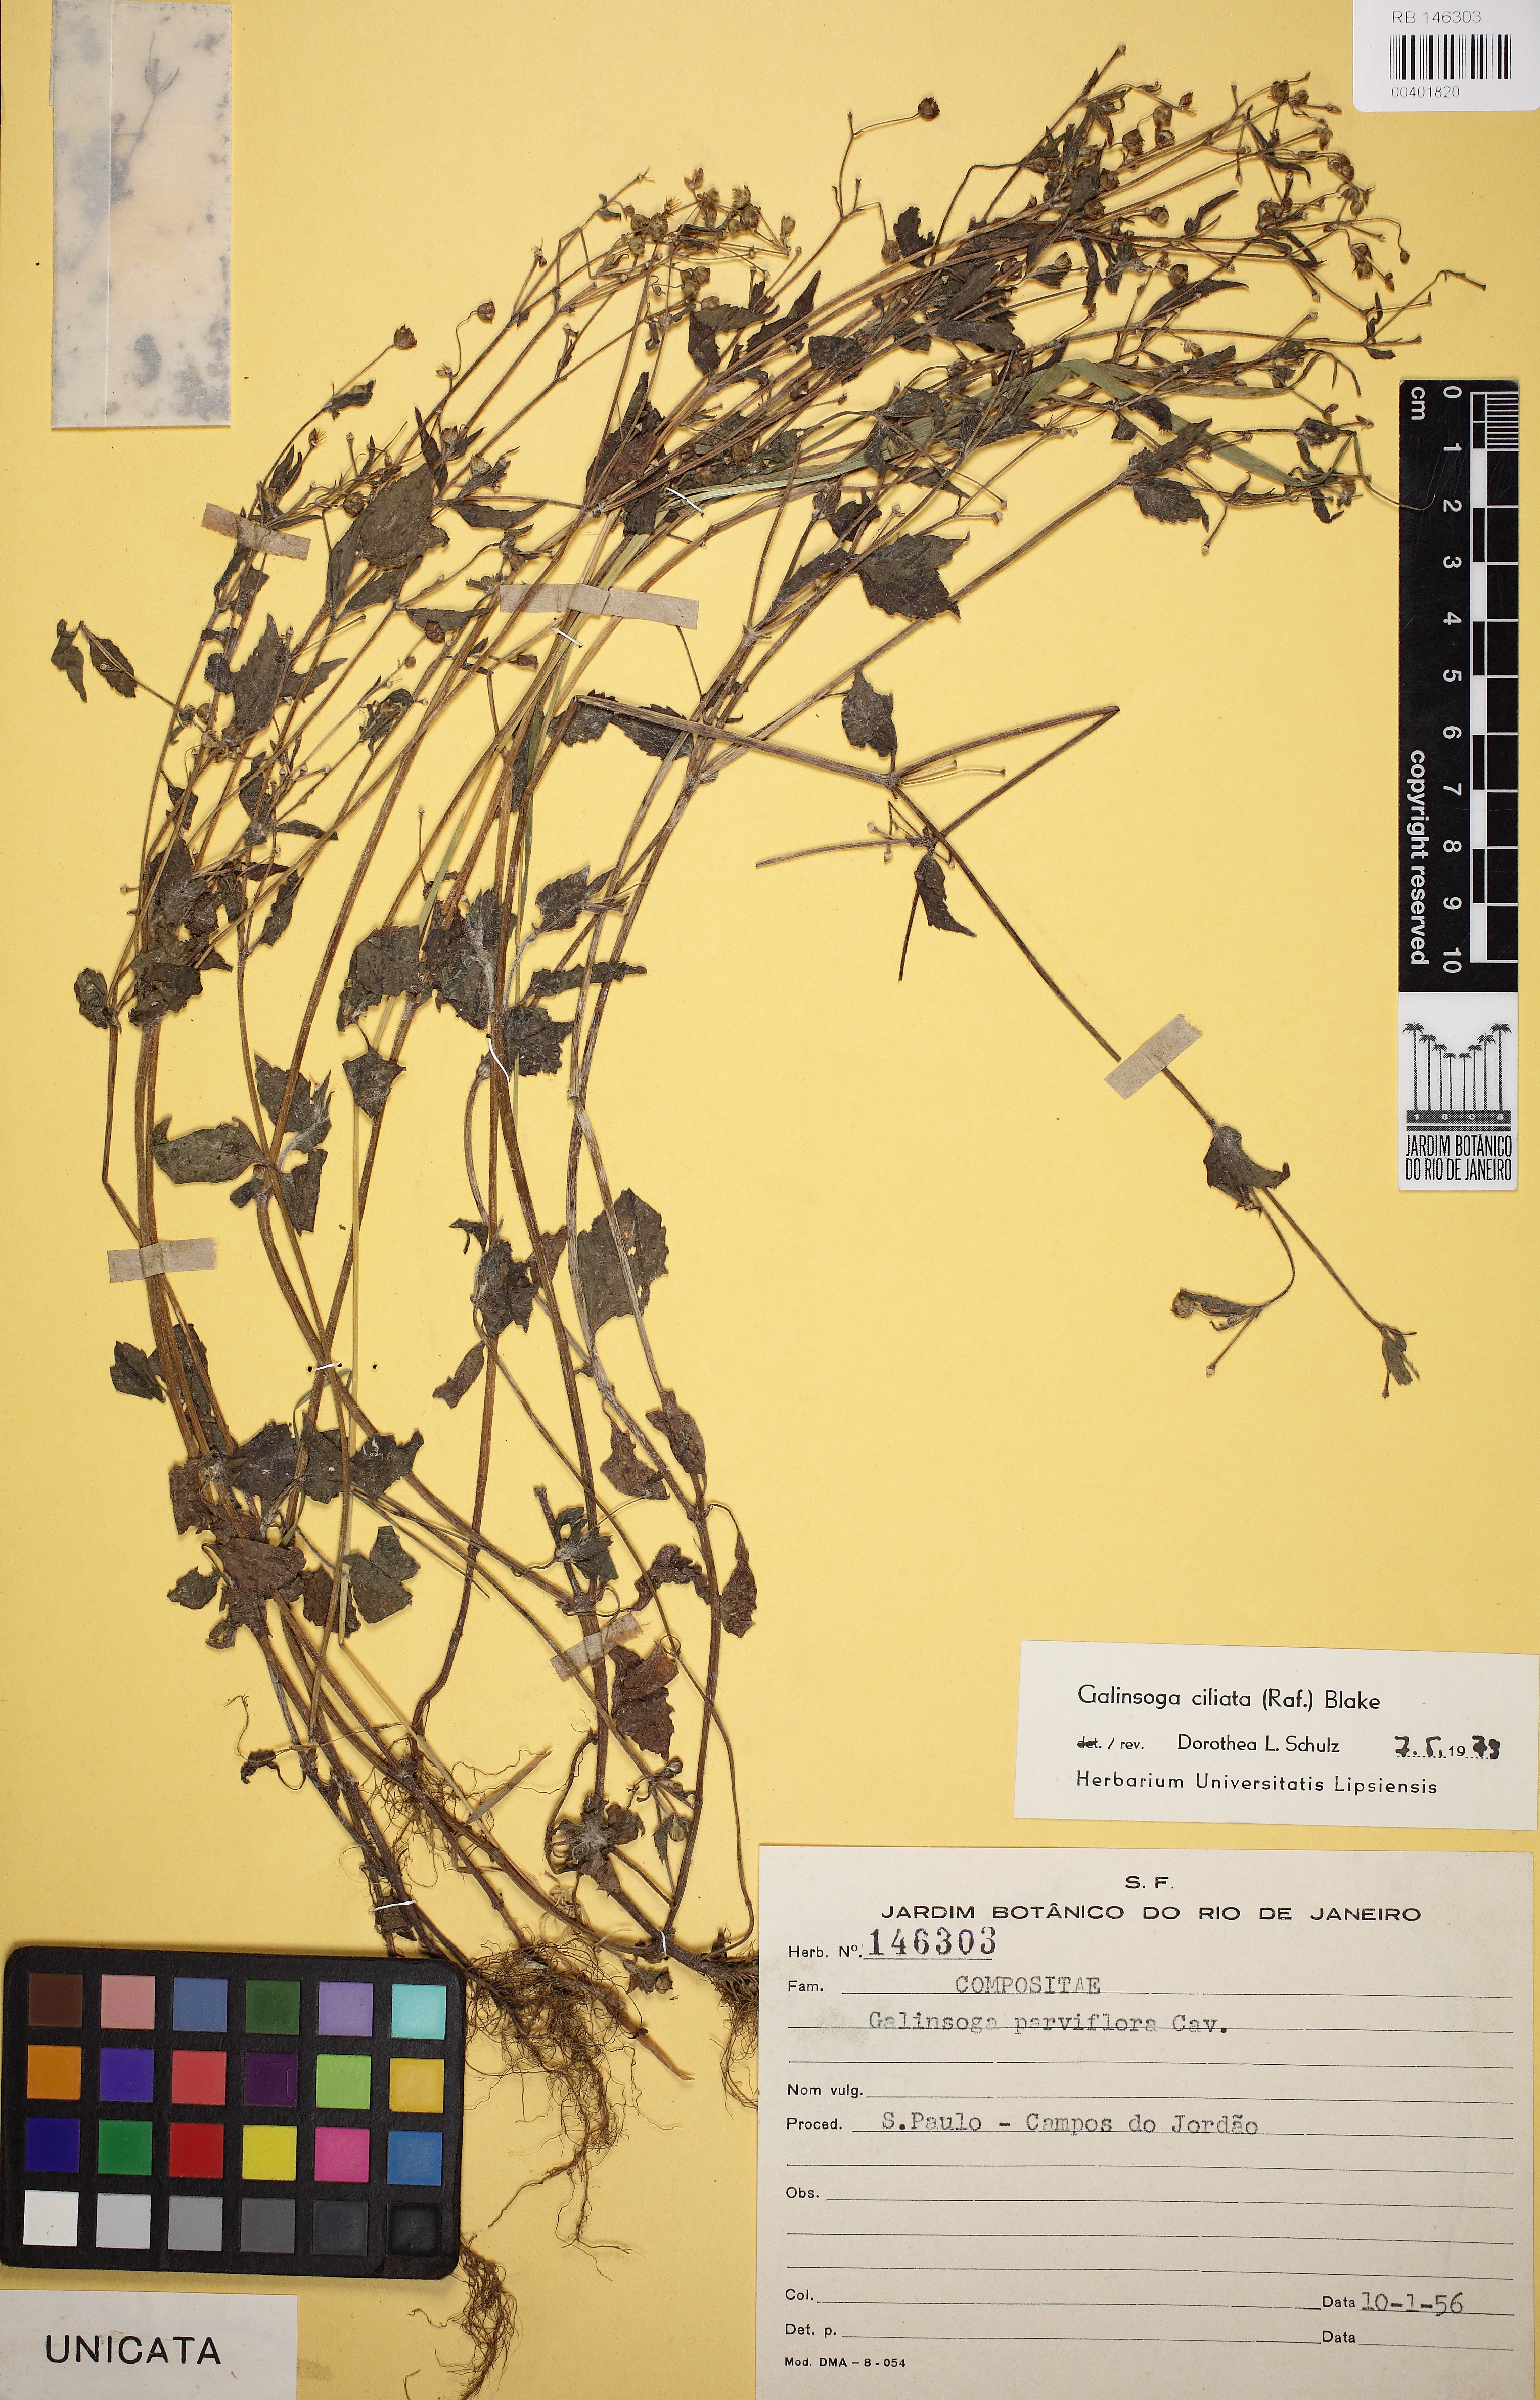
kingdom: Plantae
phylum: Tracheophyta
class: Magnoliopsida
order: Asterales
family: Asteraceae
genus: Galinsoga
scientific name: Galinsoga quadriradiata
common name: Shaggy soldier
